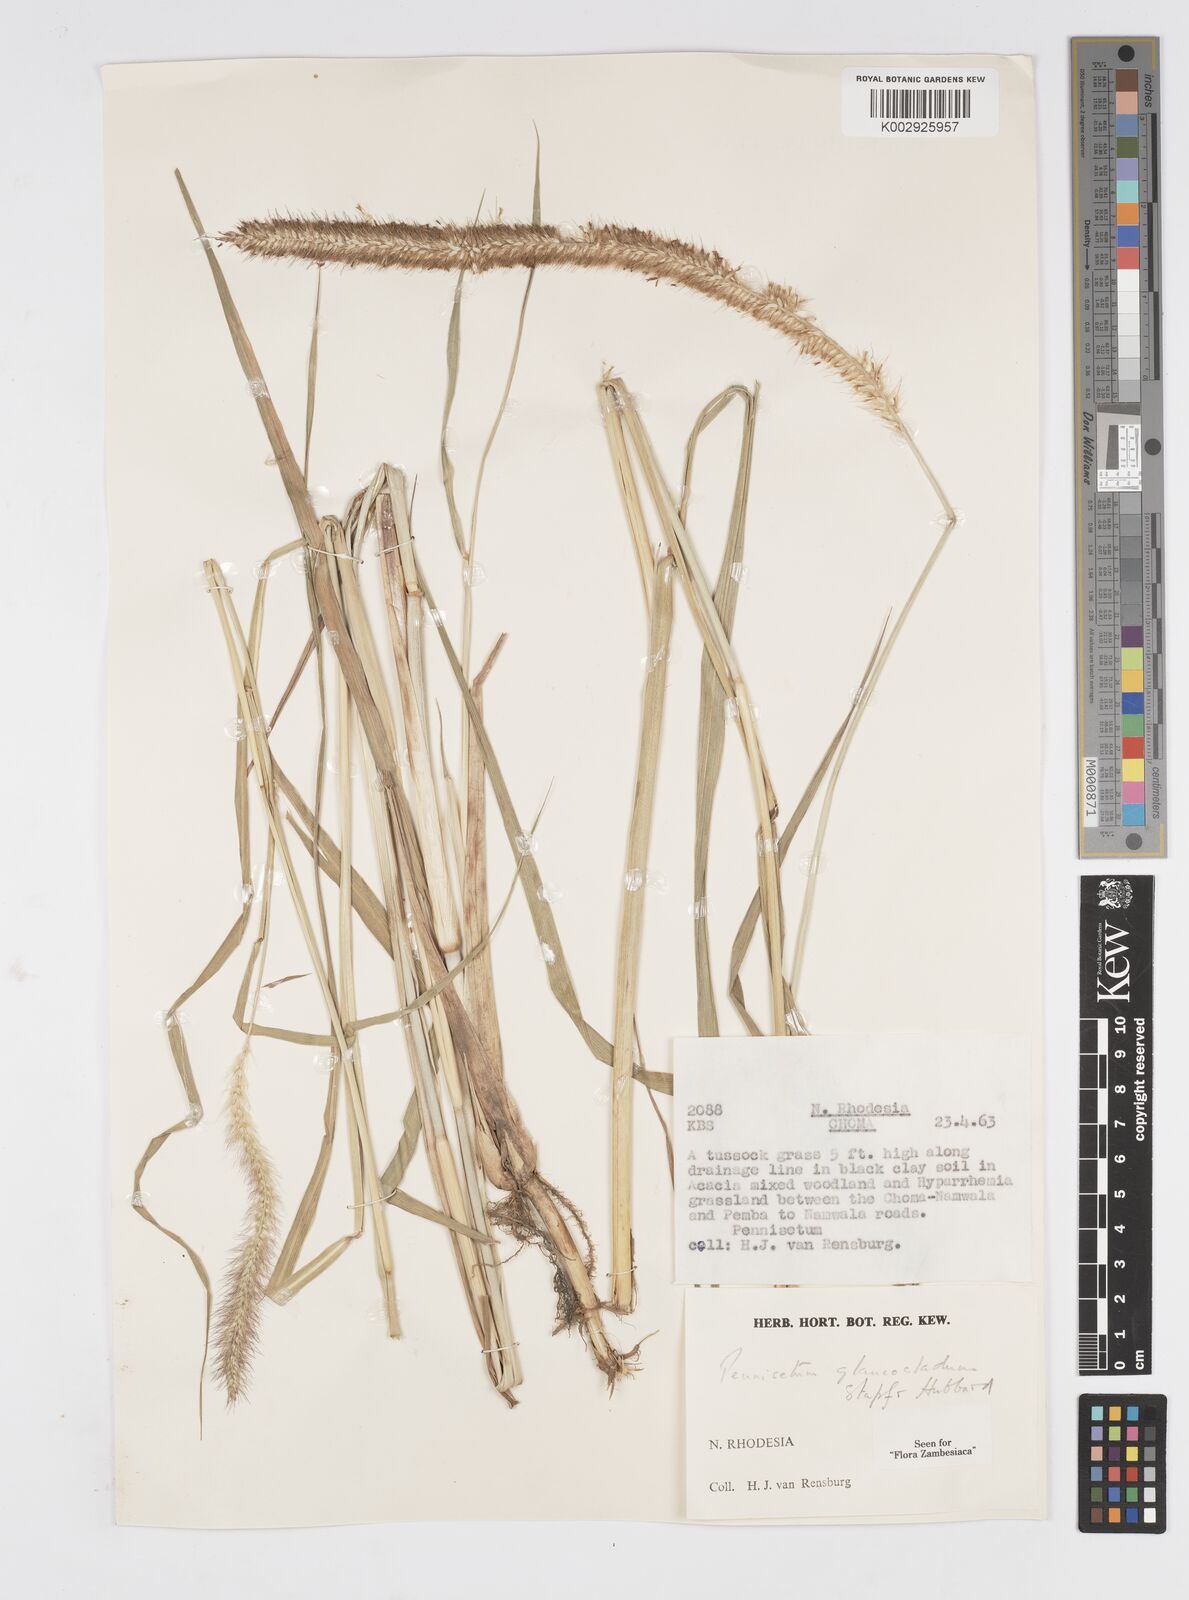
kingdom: Plantae
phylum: Tracheophyta
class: Liliopsida
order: Poales
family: Poaceae
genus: Cenchrus
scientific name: Cenchrus caudatus
